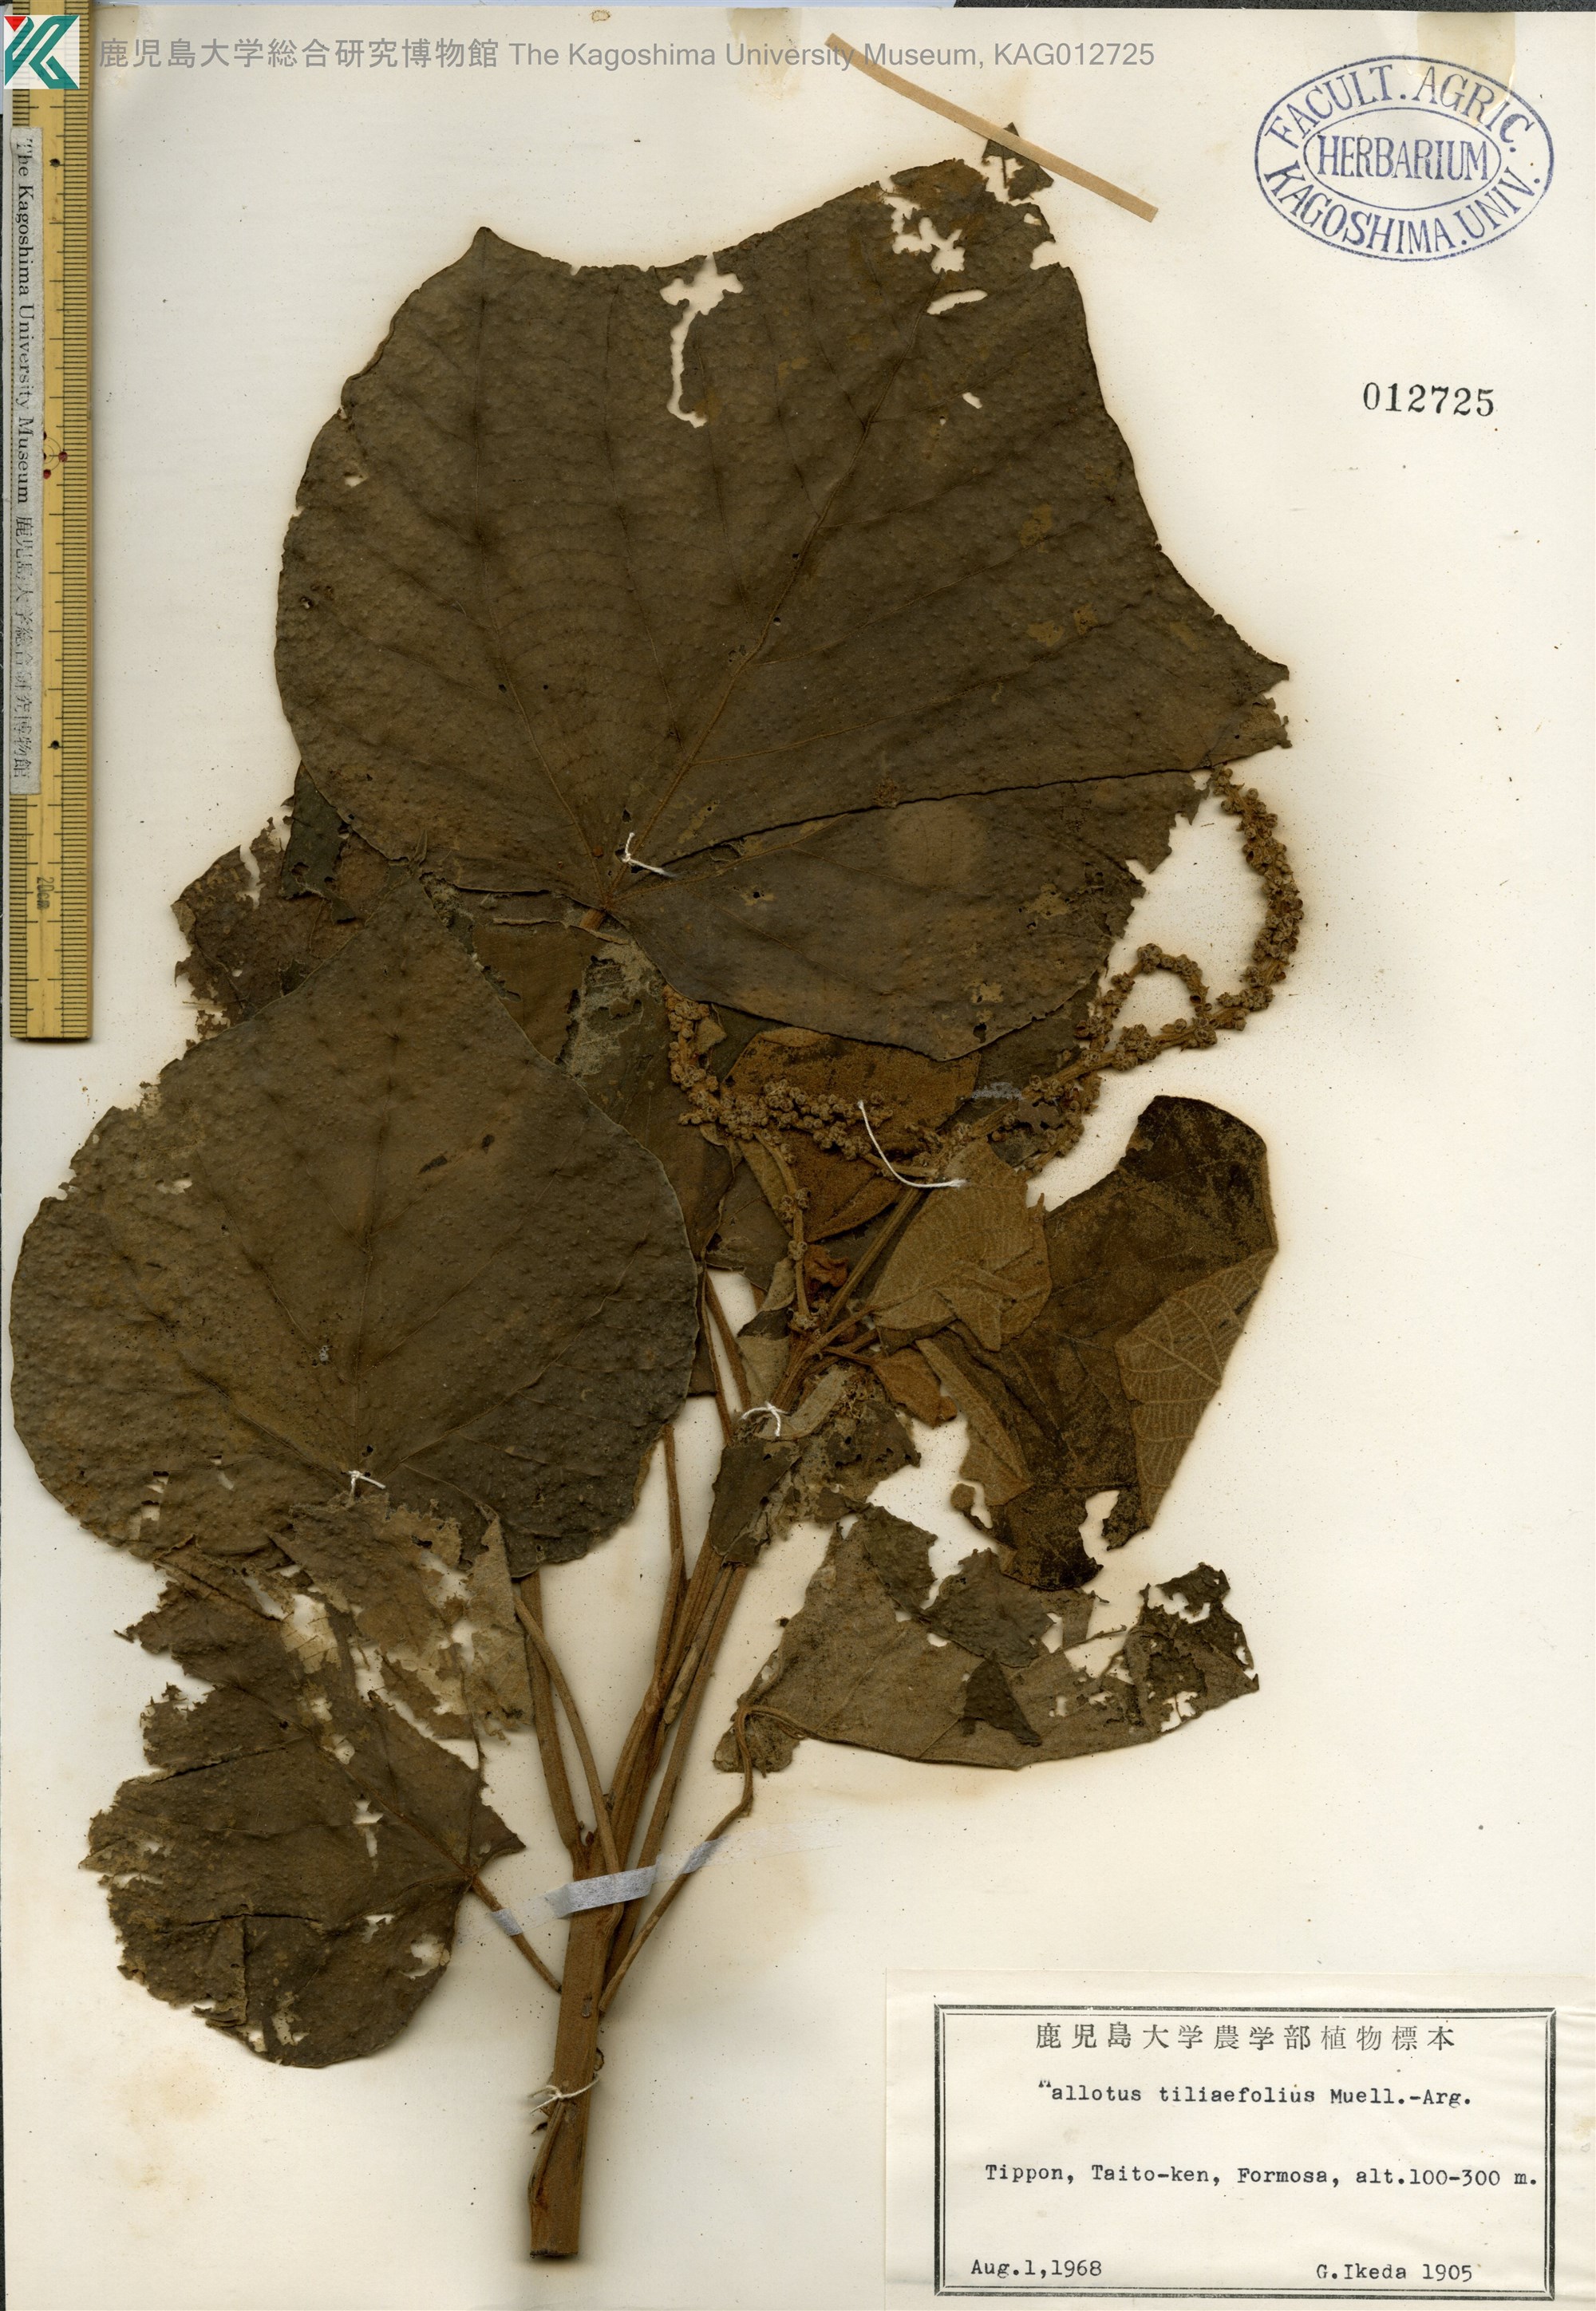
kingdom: Plantae
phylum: Tracheophyta
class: Magnoliopsida
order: Malpighiales
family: Euphorbiaceae
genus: Mallotus
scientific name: Mallotus mollissimus
